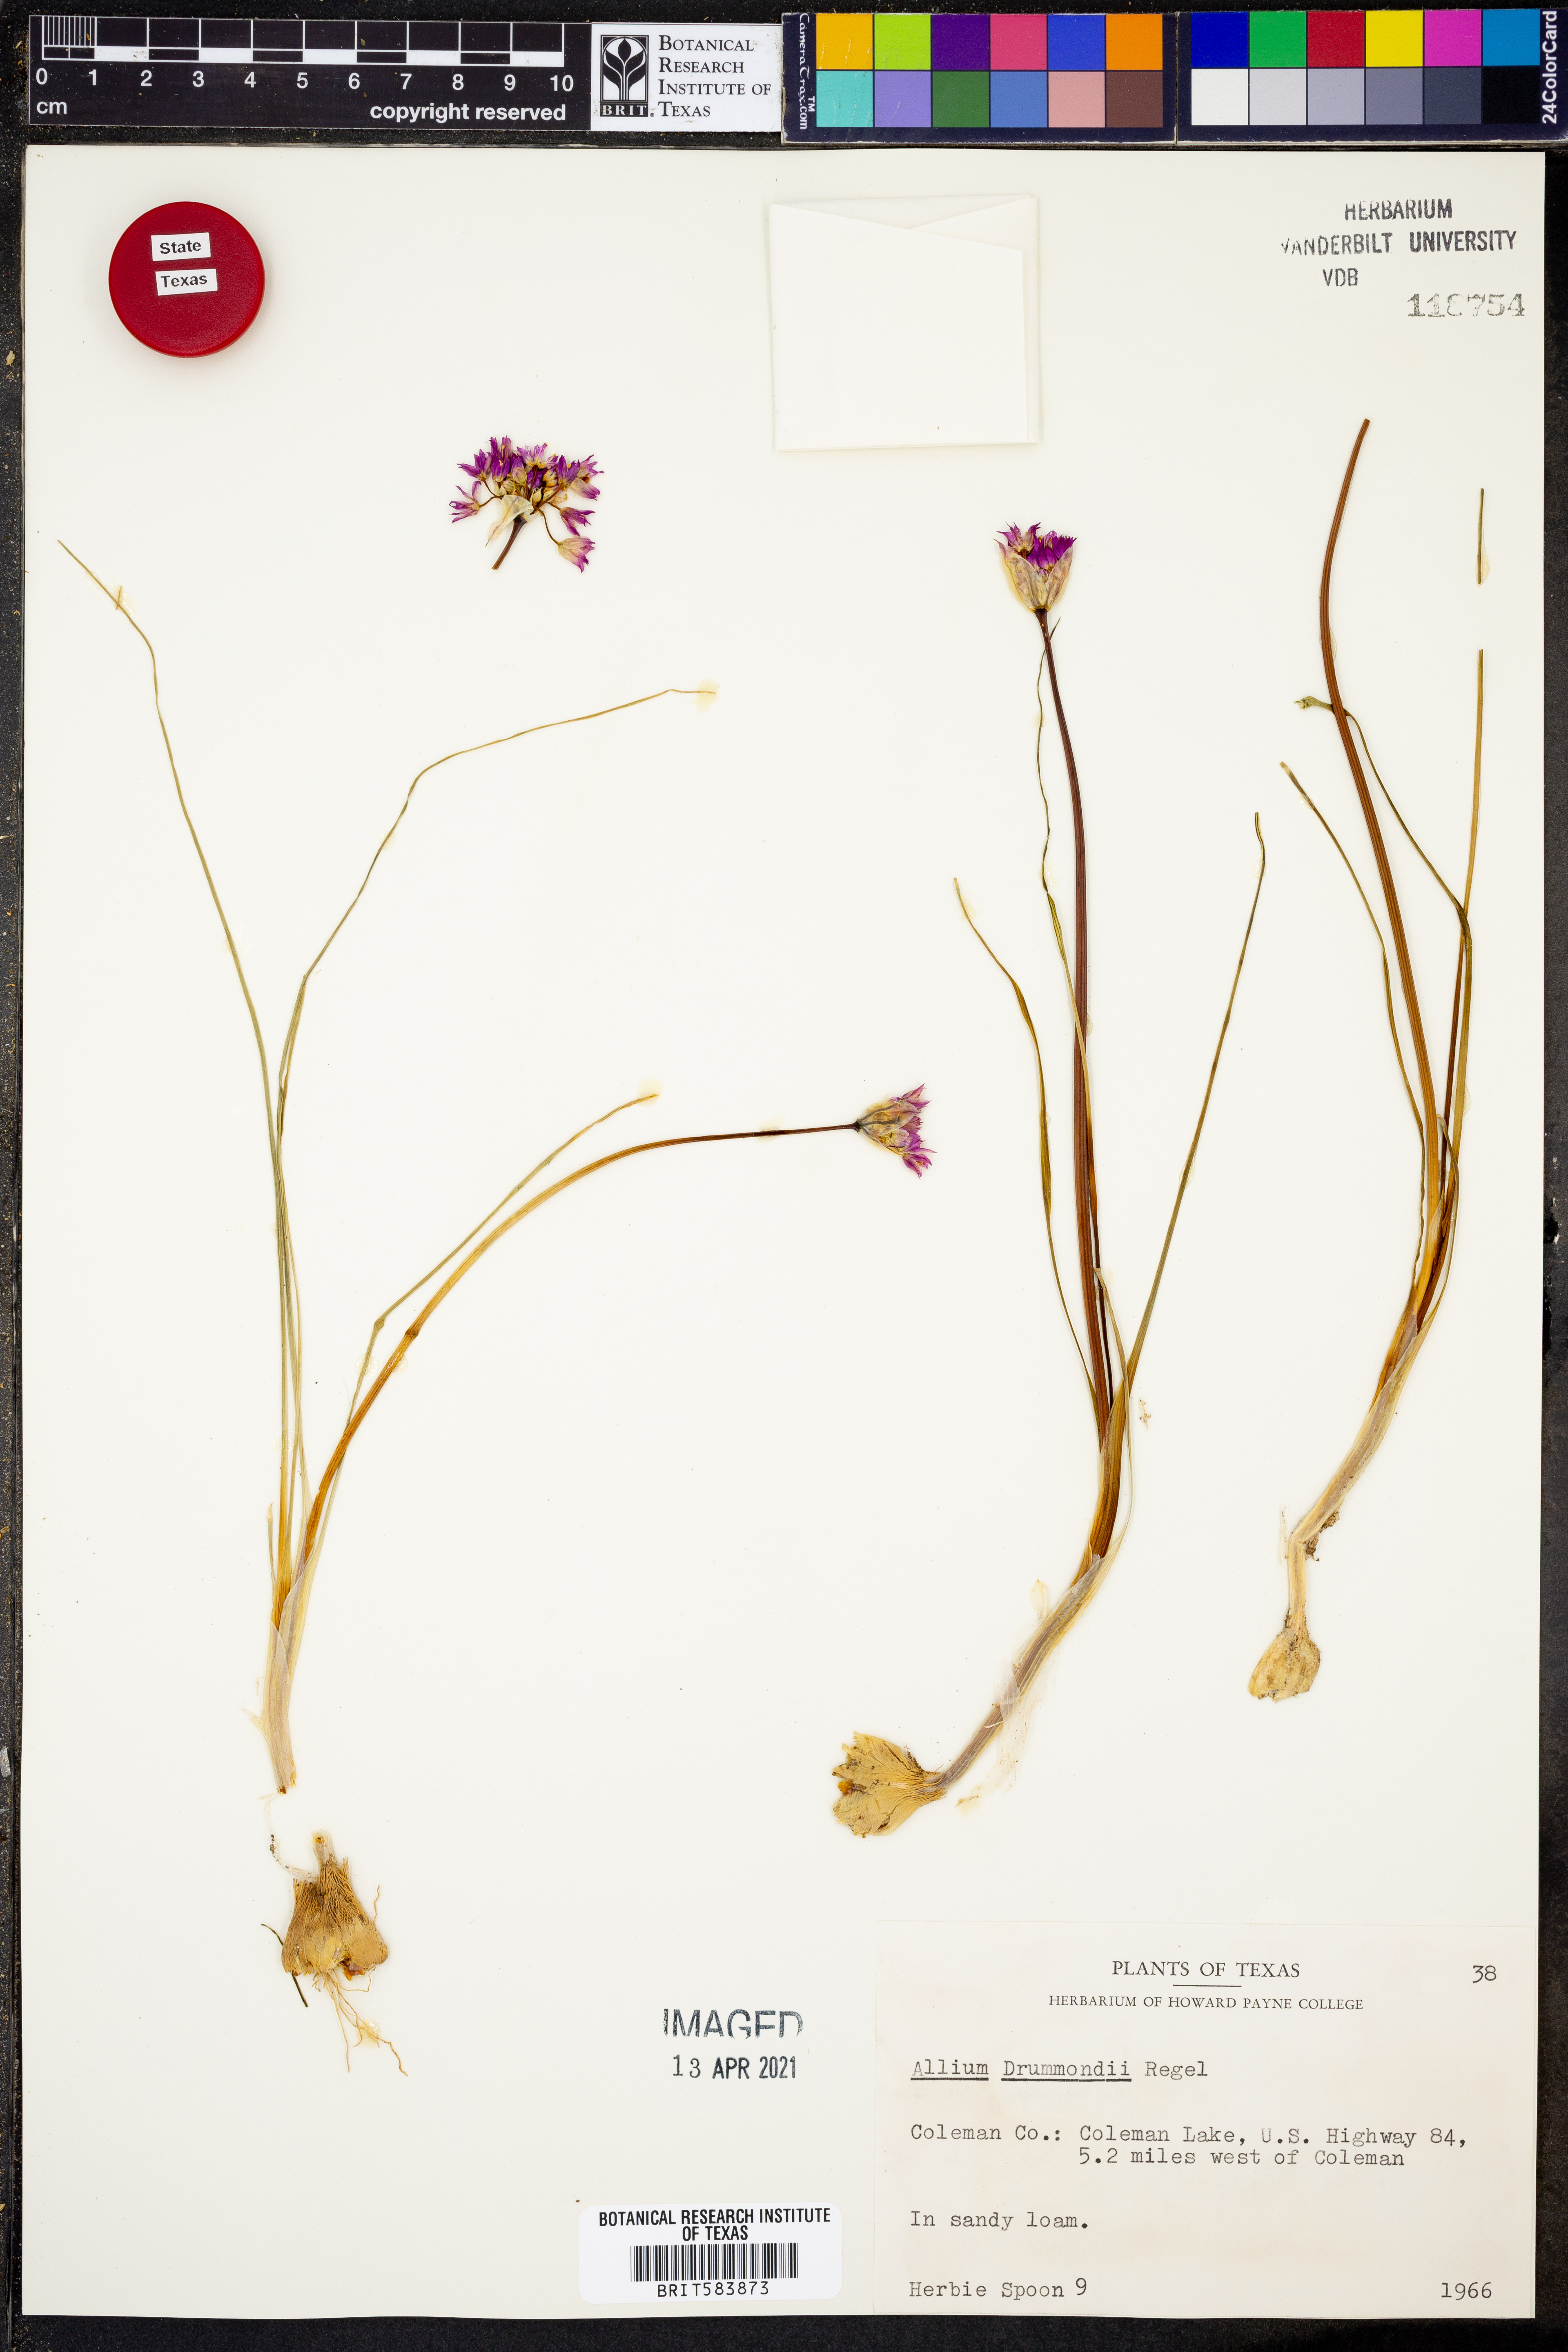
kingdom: Plantae
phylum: Tracheophyta
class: Liliopsida
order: Asparagales
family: Amaryllidaceae
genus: Allium
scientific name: Allium drummondii
